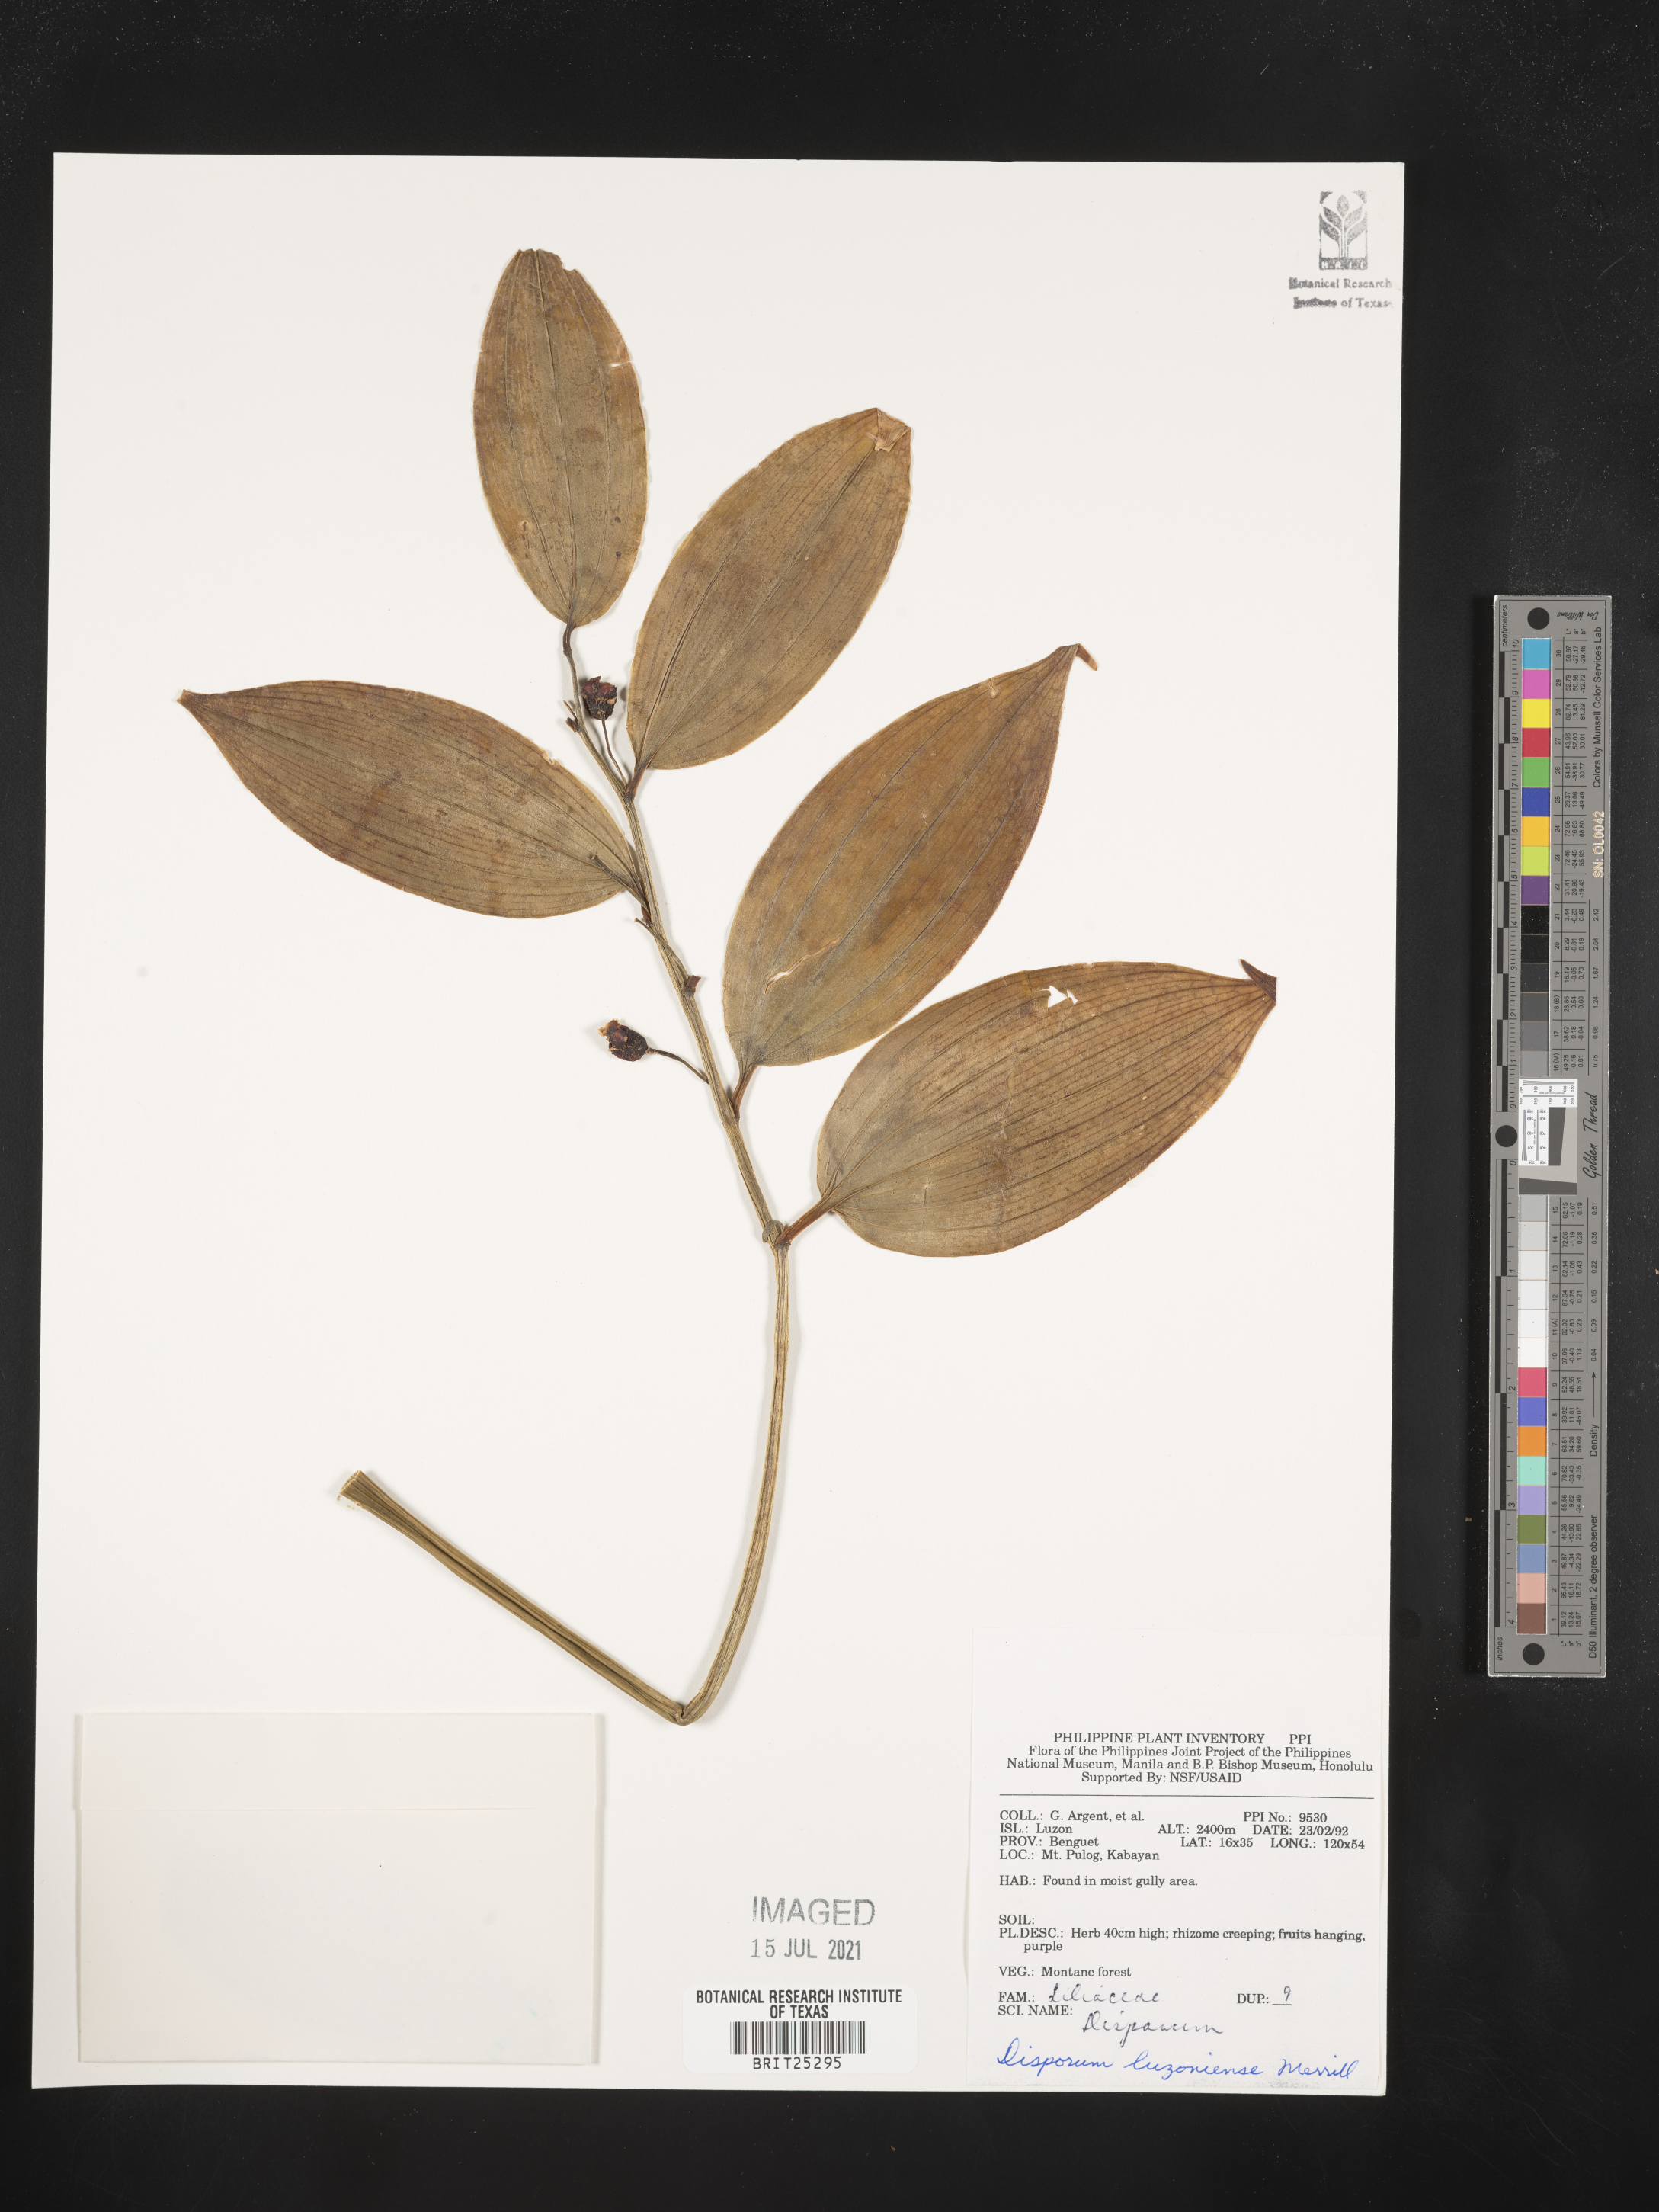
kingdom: Plantae
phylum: Tracheophyta
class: Liliopsida
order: Asparagales
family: Asparagaceae
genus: Disporopsis
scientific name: Disporopsis luzoniensis
